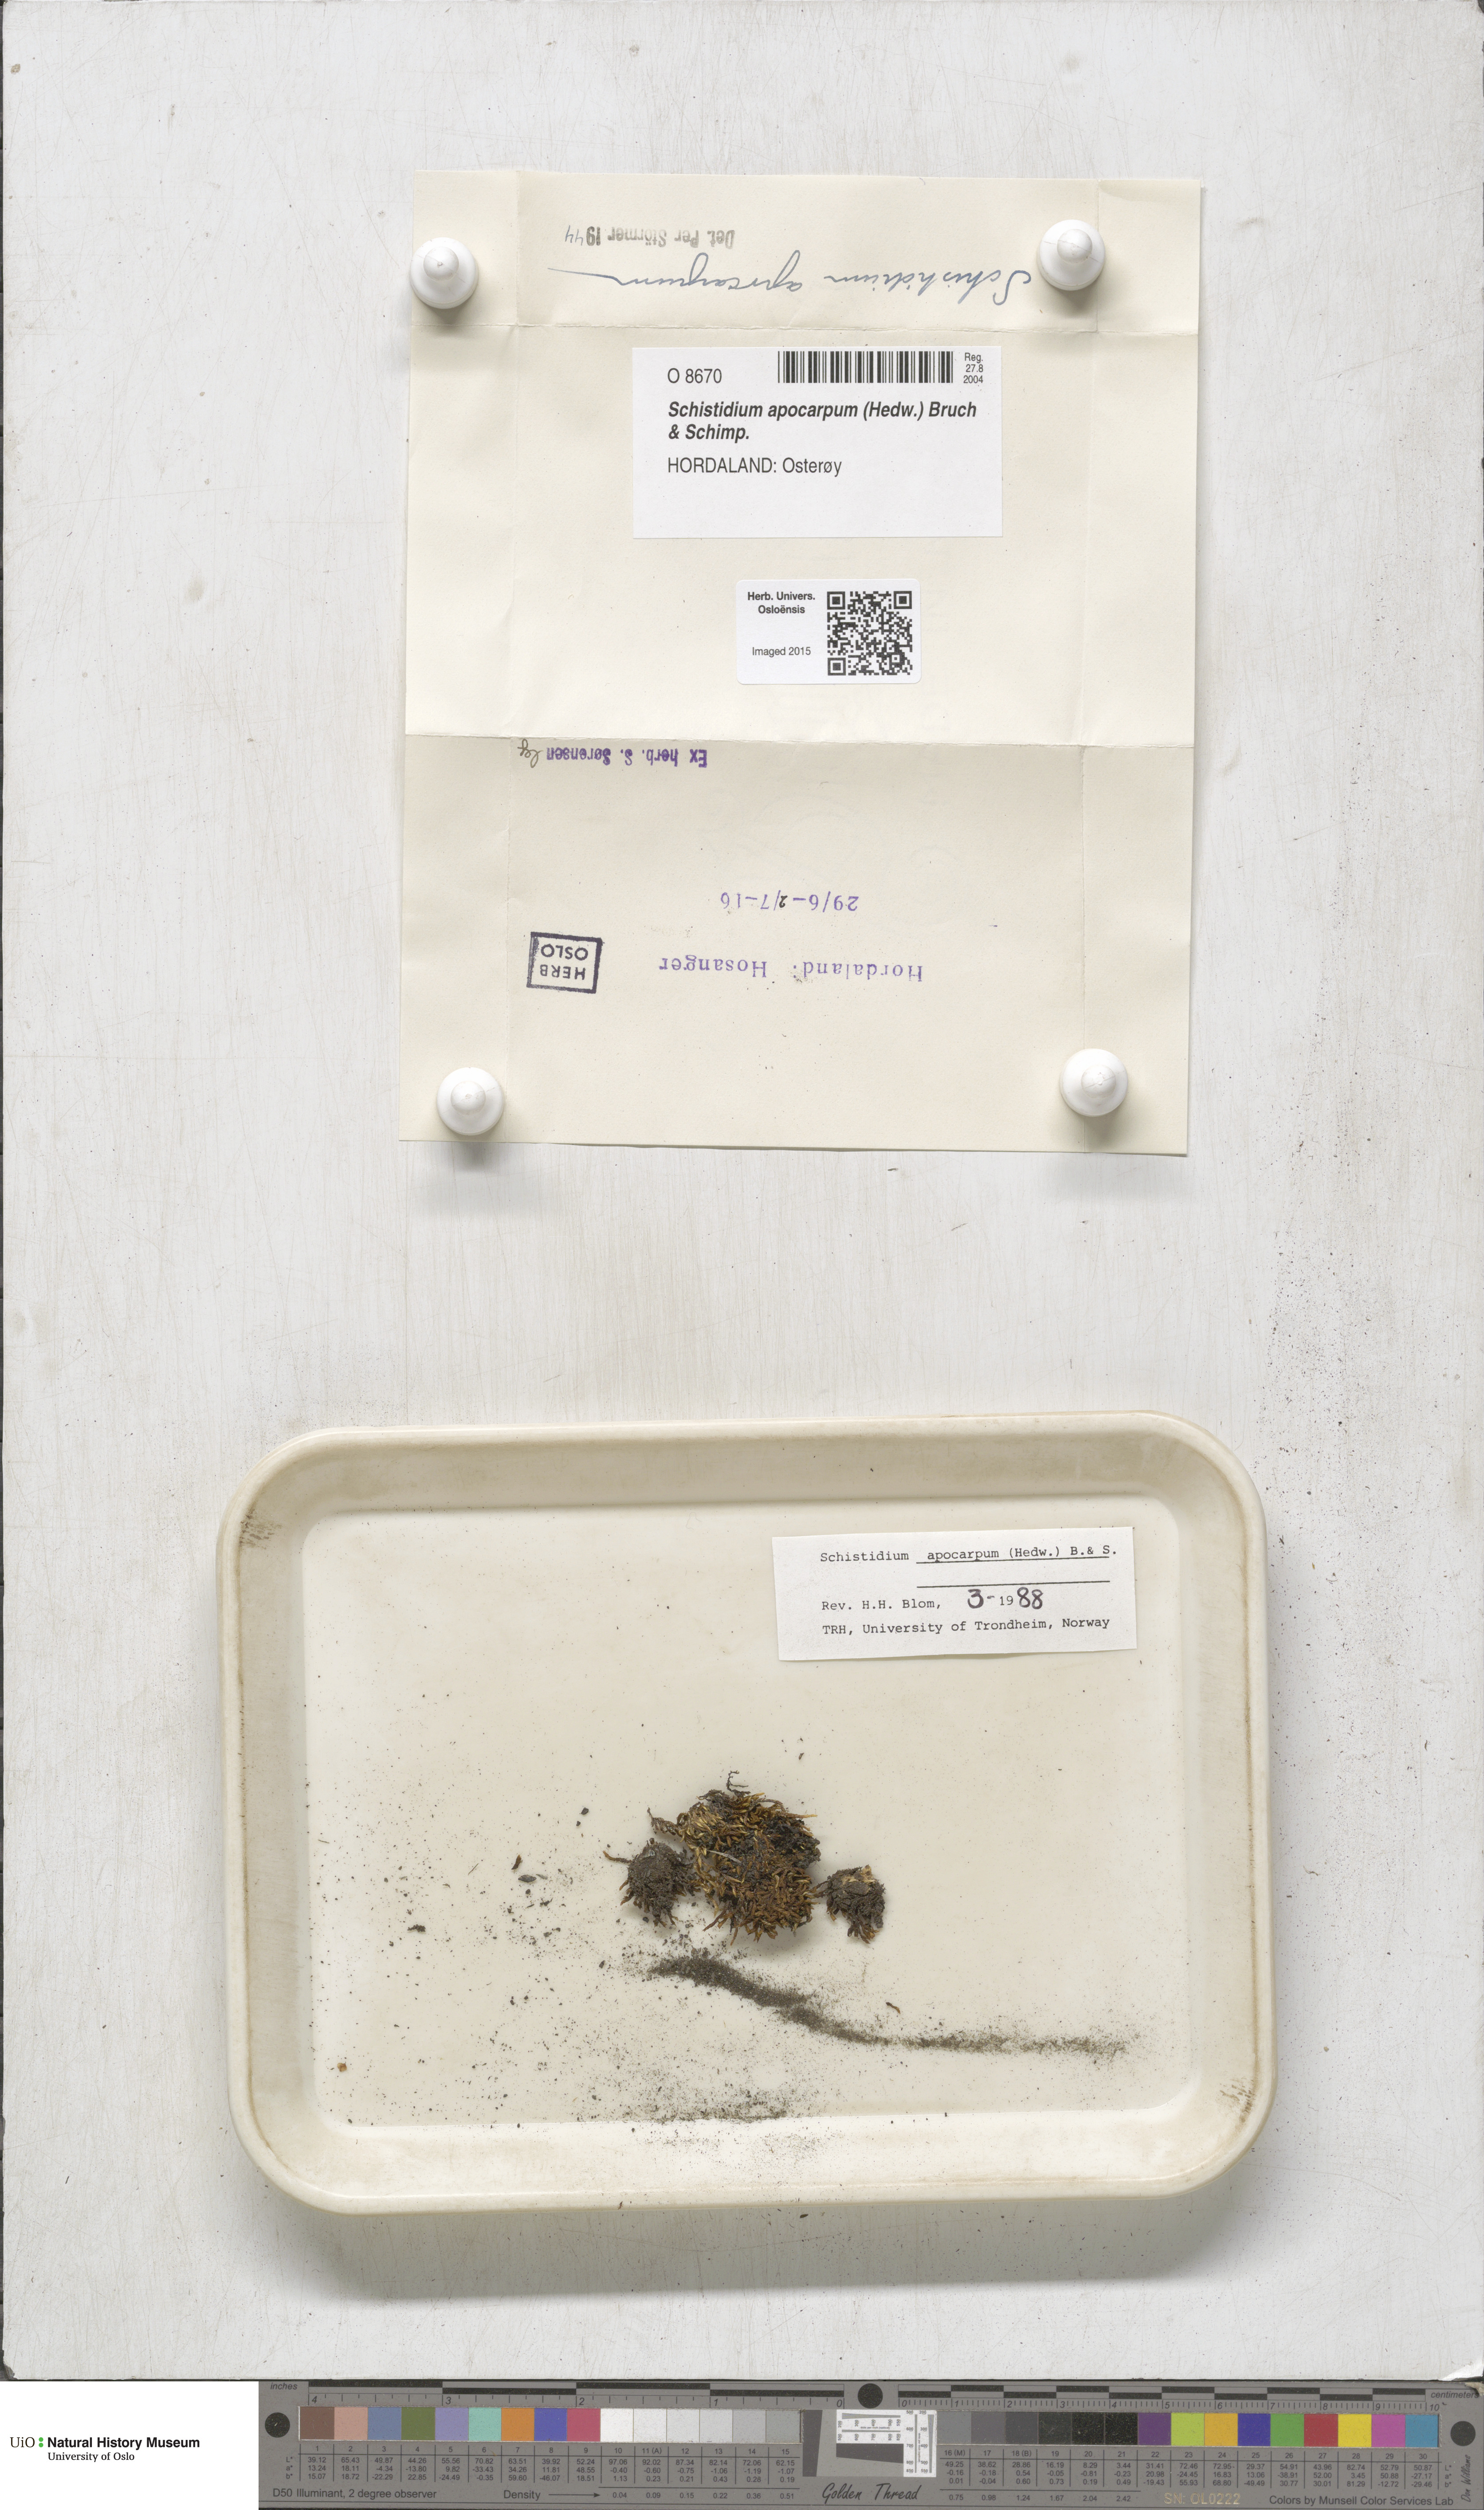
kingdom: Plantae
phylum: Bryophyta
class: Bryopsida
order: Grimmiales
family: Grimmiaceae
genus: Schistidium
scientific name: Schistidium apocarpum
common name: Radiate bloom moss
